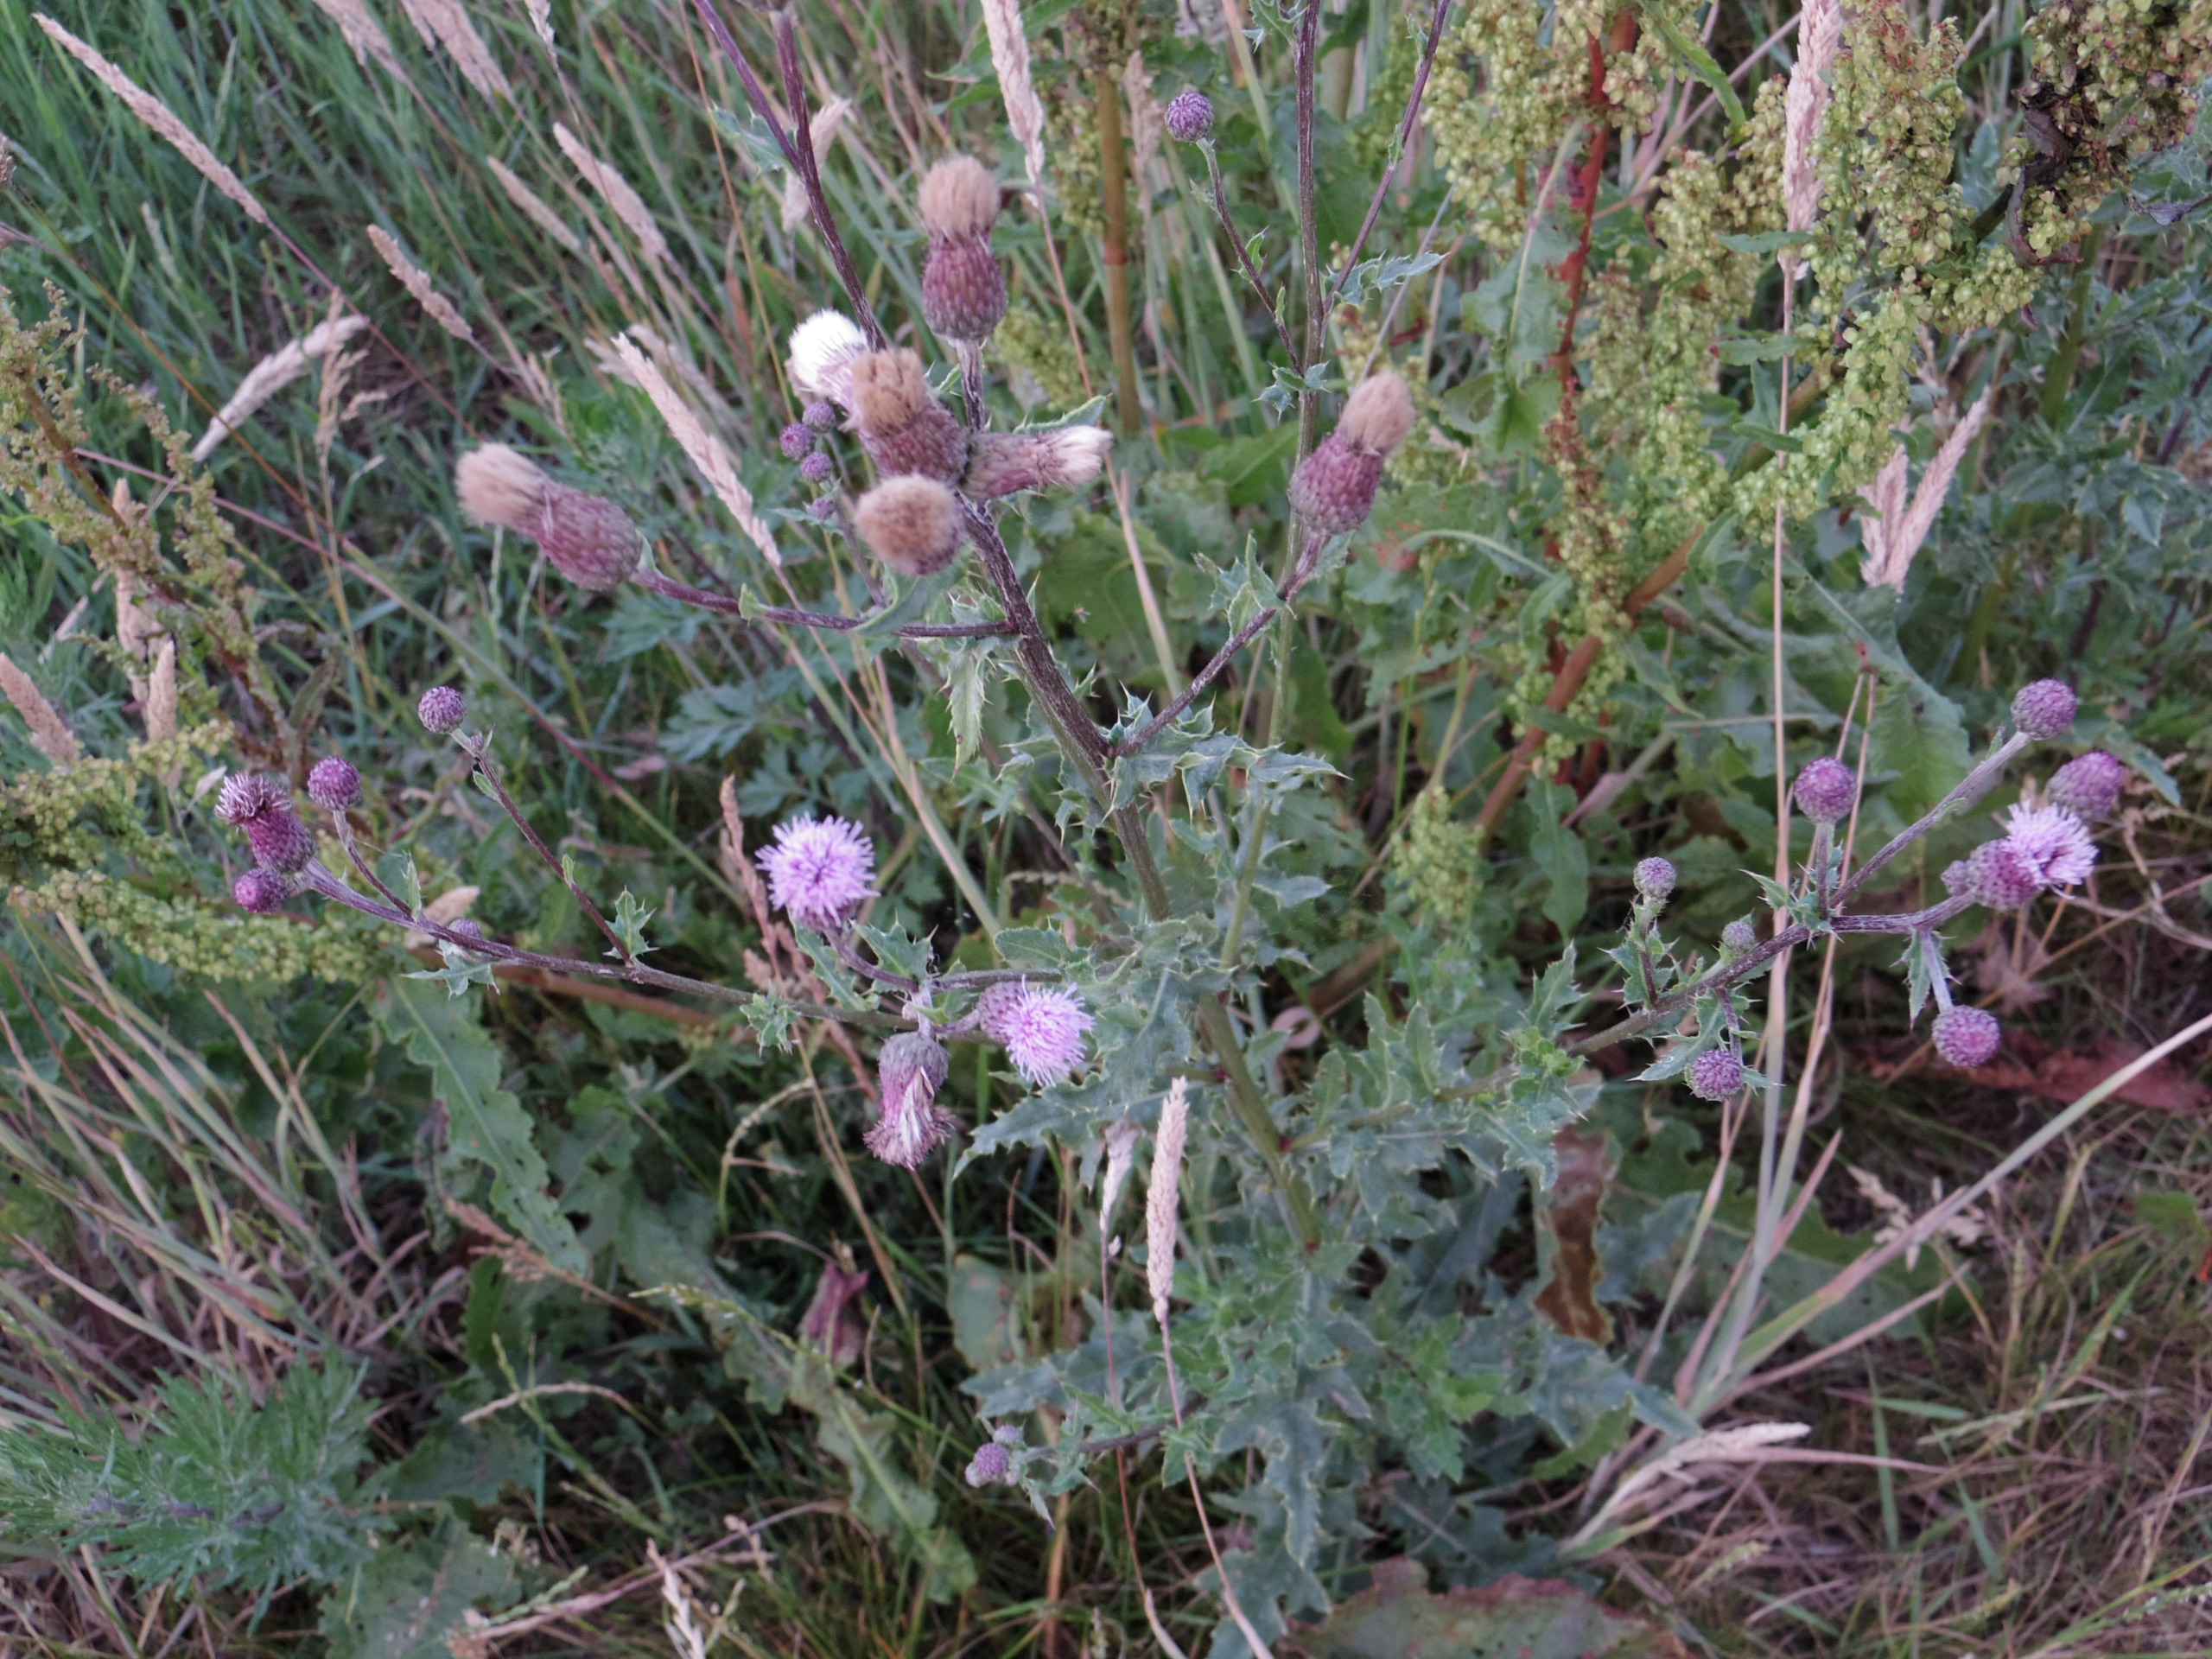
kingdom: Plantae
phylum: Tracheophyta
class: Magnoliopsida
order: Asterales
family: Asteraceae
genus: Cirsium
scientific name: Cirsium arvense
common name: Ager-tidsel
